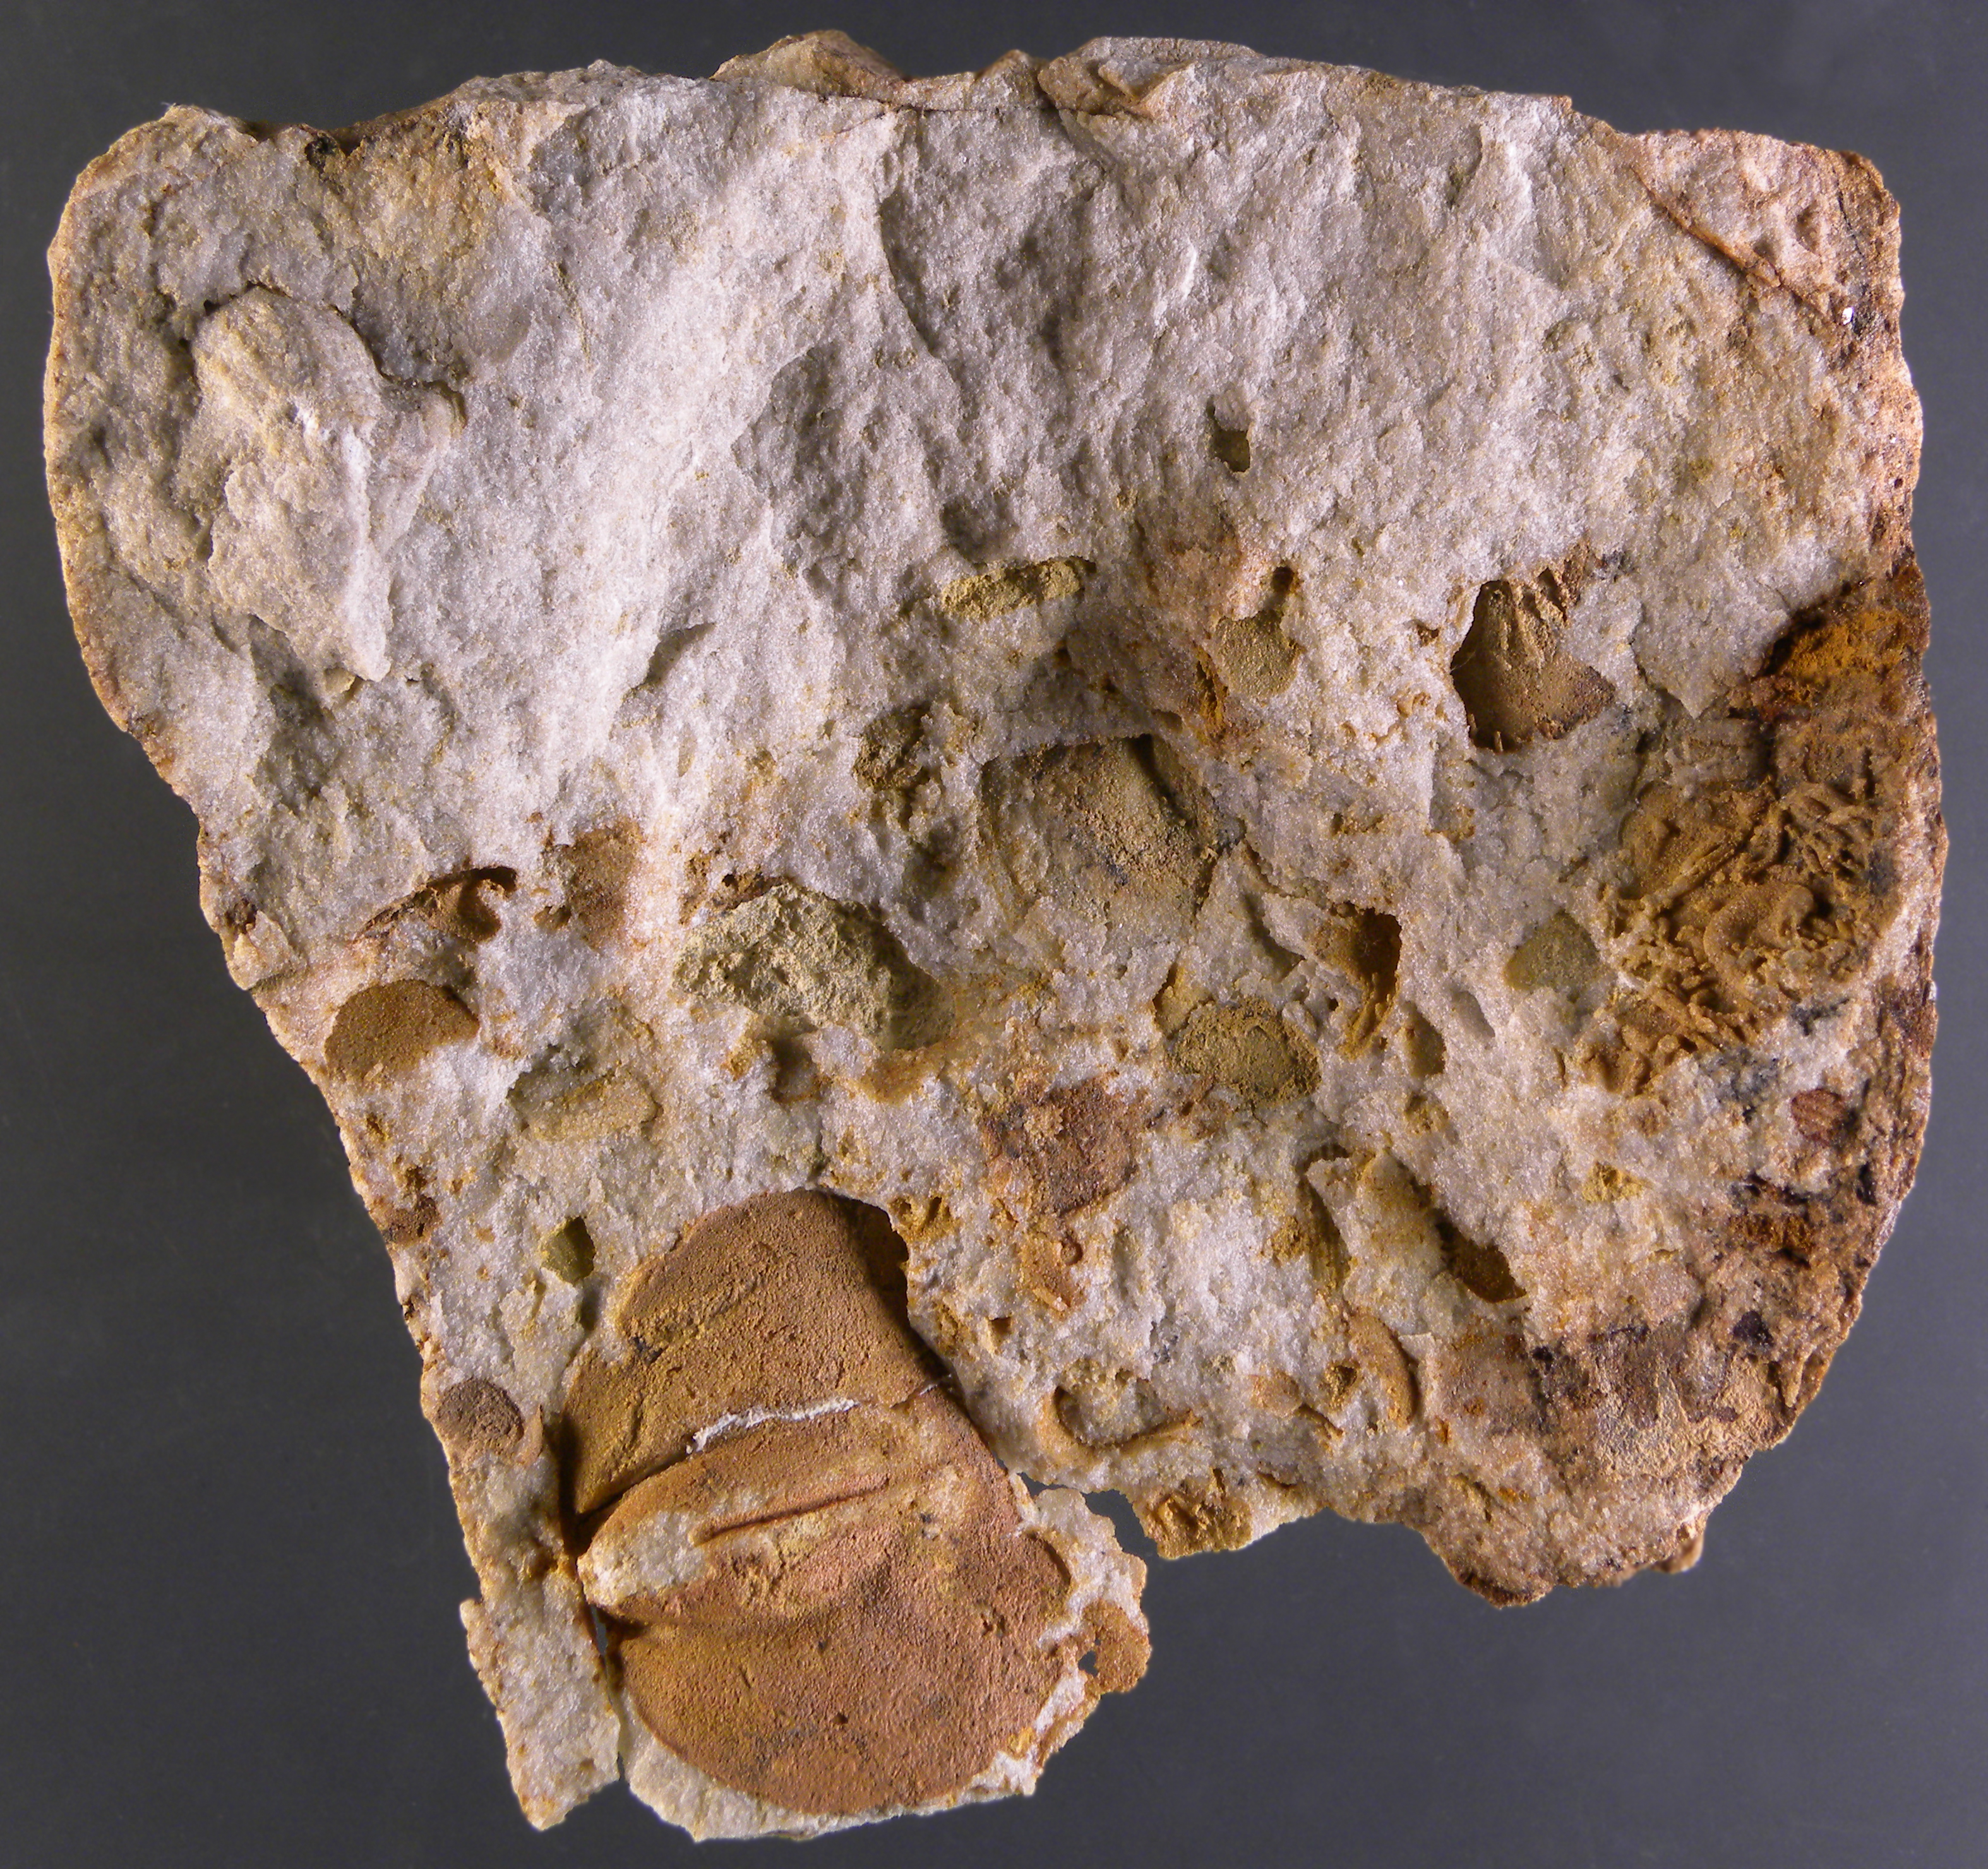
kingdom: Animalia
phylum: Brachiopoda
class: Rhynchonellata
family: Schizophoriidae
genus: Schizophoria
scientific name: Schizophoria
